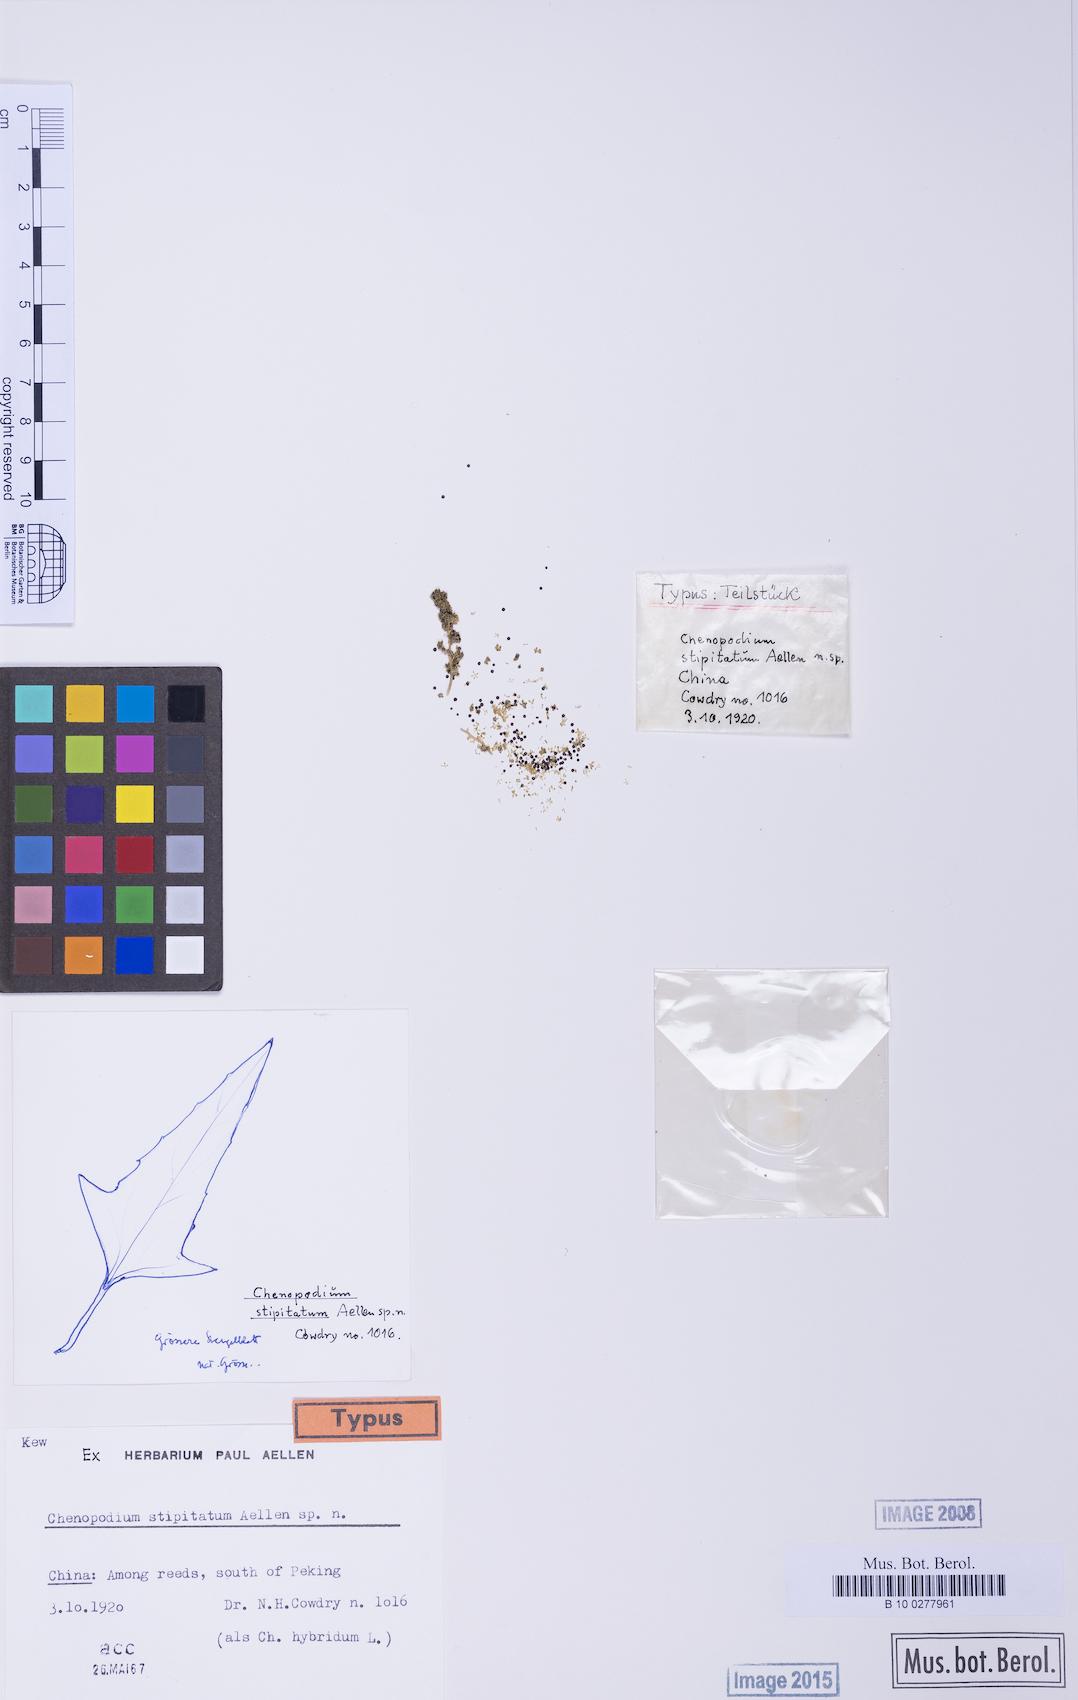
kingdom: Plantae
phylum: Tracheophyta
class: Magnoliopsida
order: Caryophyllales
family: Amaranthaceae
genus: Chenopodium
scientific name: Chenopodium
